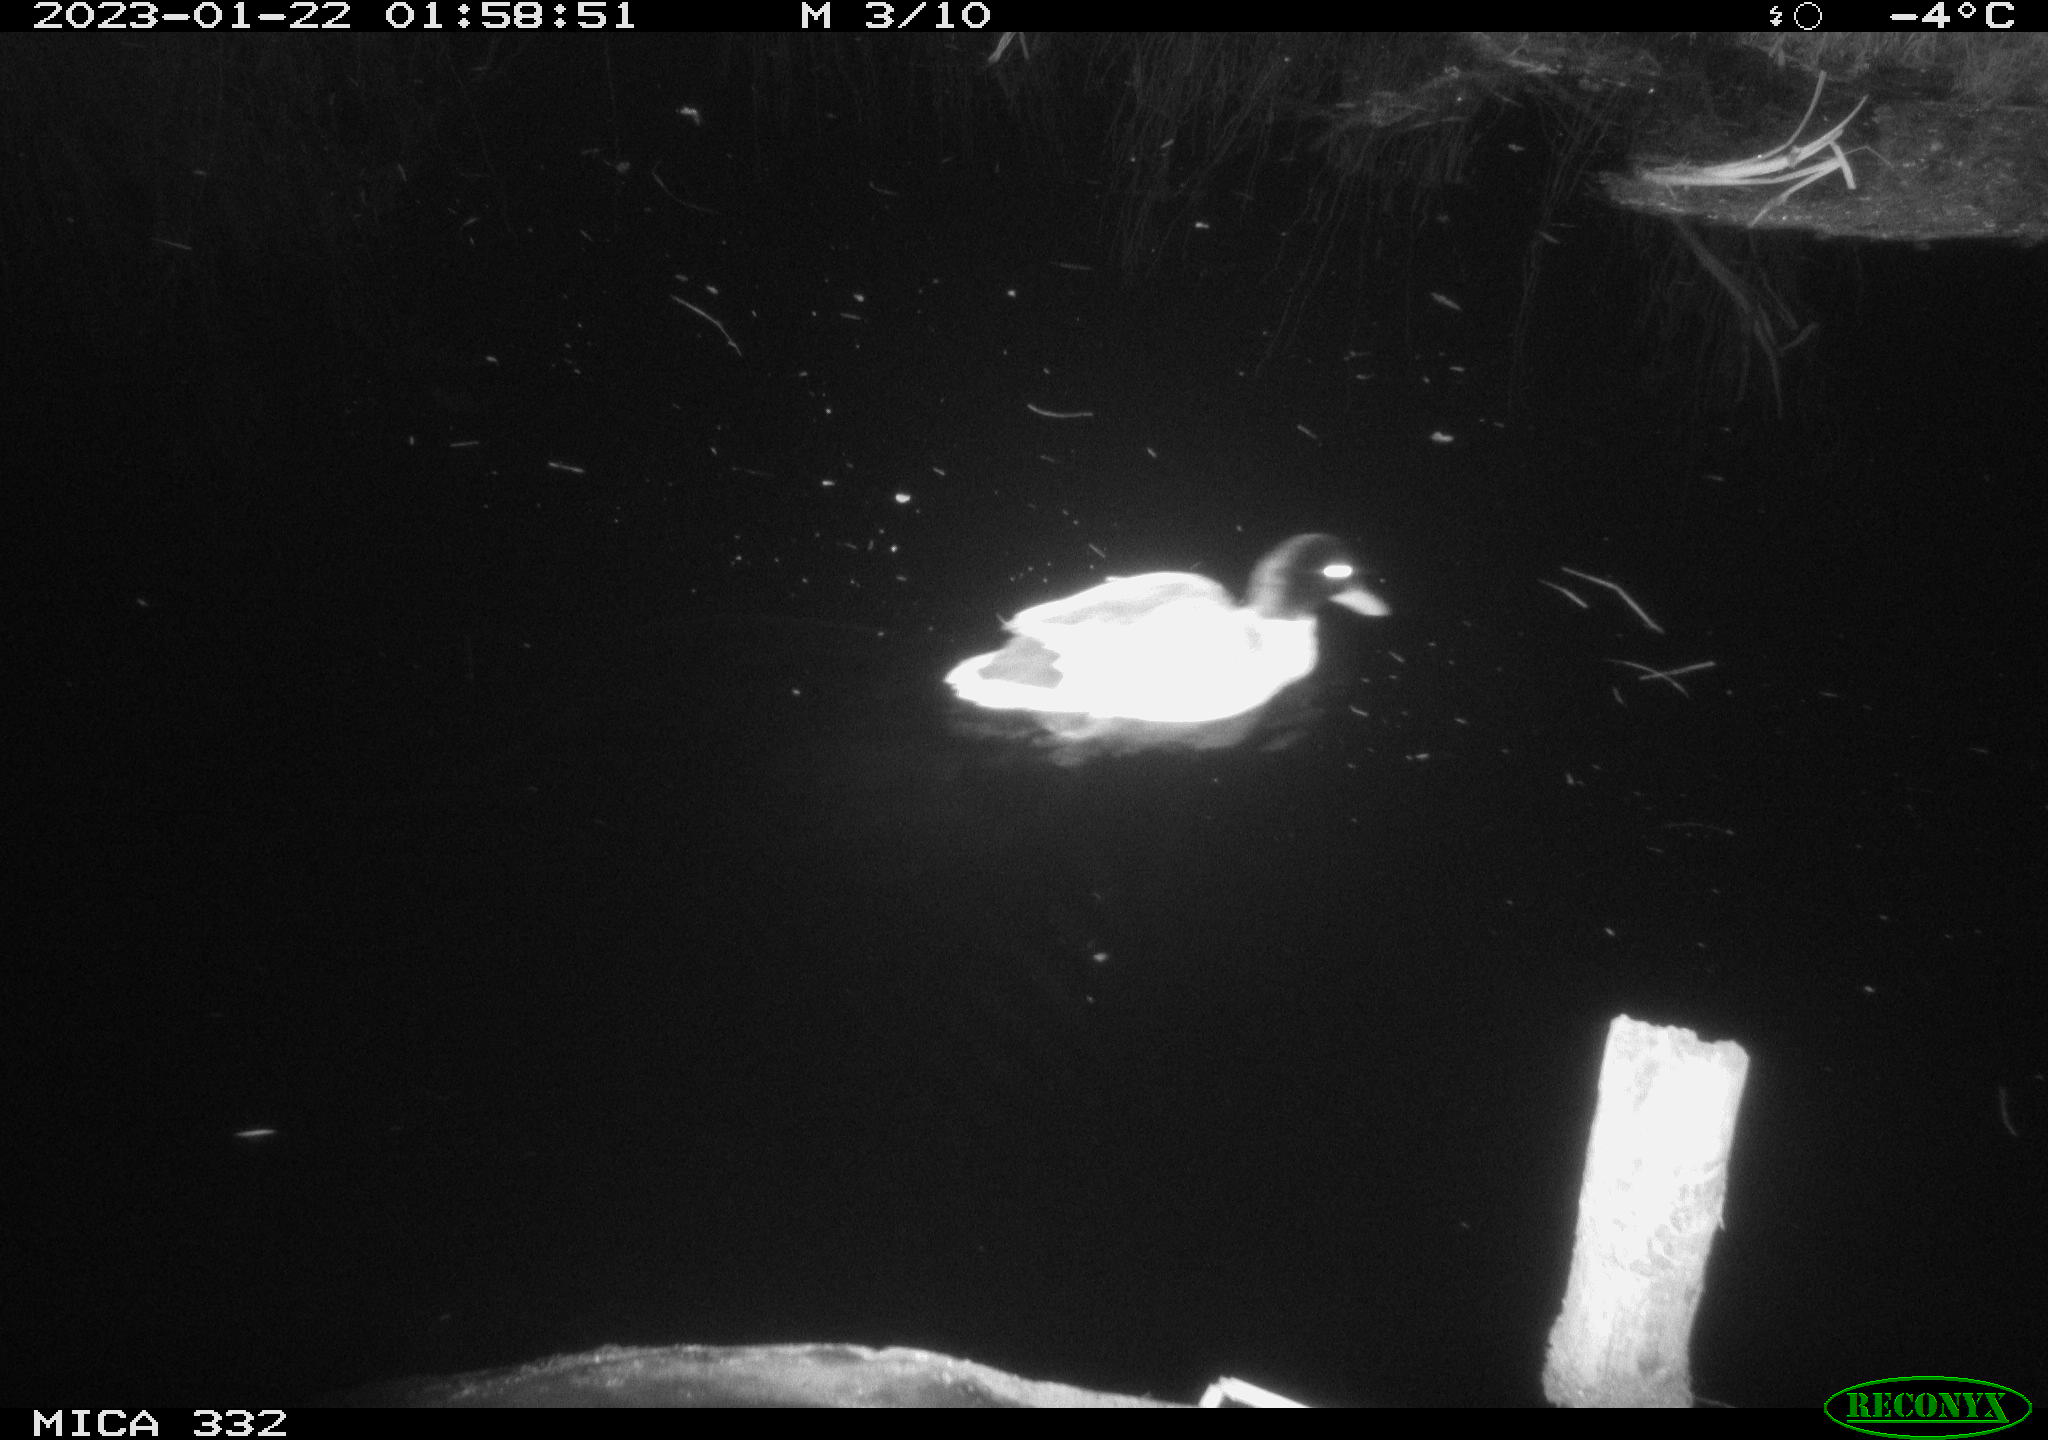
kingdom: Animalia
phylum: Chordata
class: Aves
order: Anseriformes
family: Anatidae
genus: Anas
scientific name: Anas
